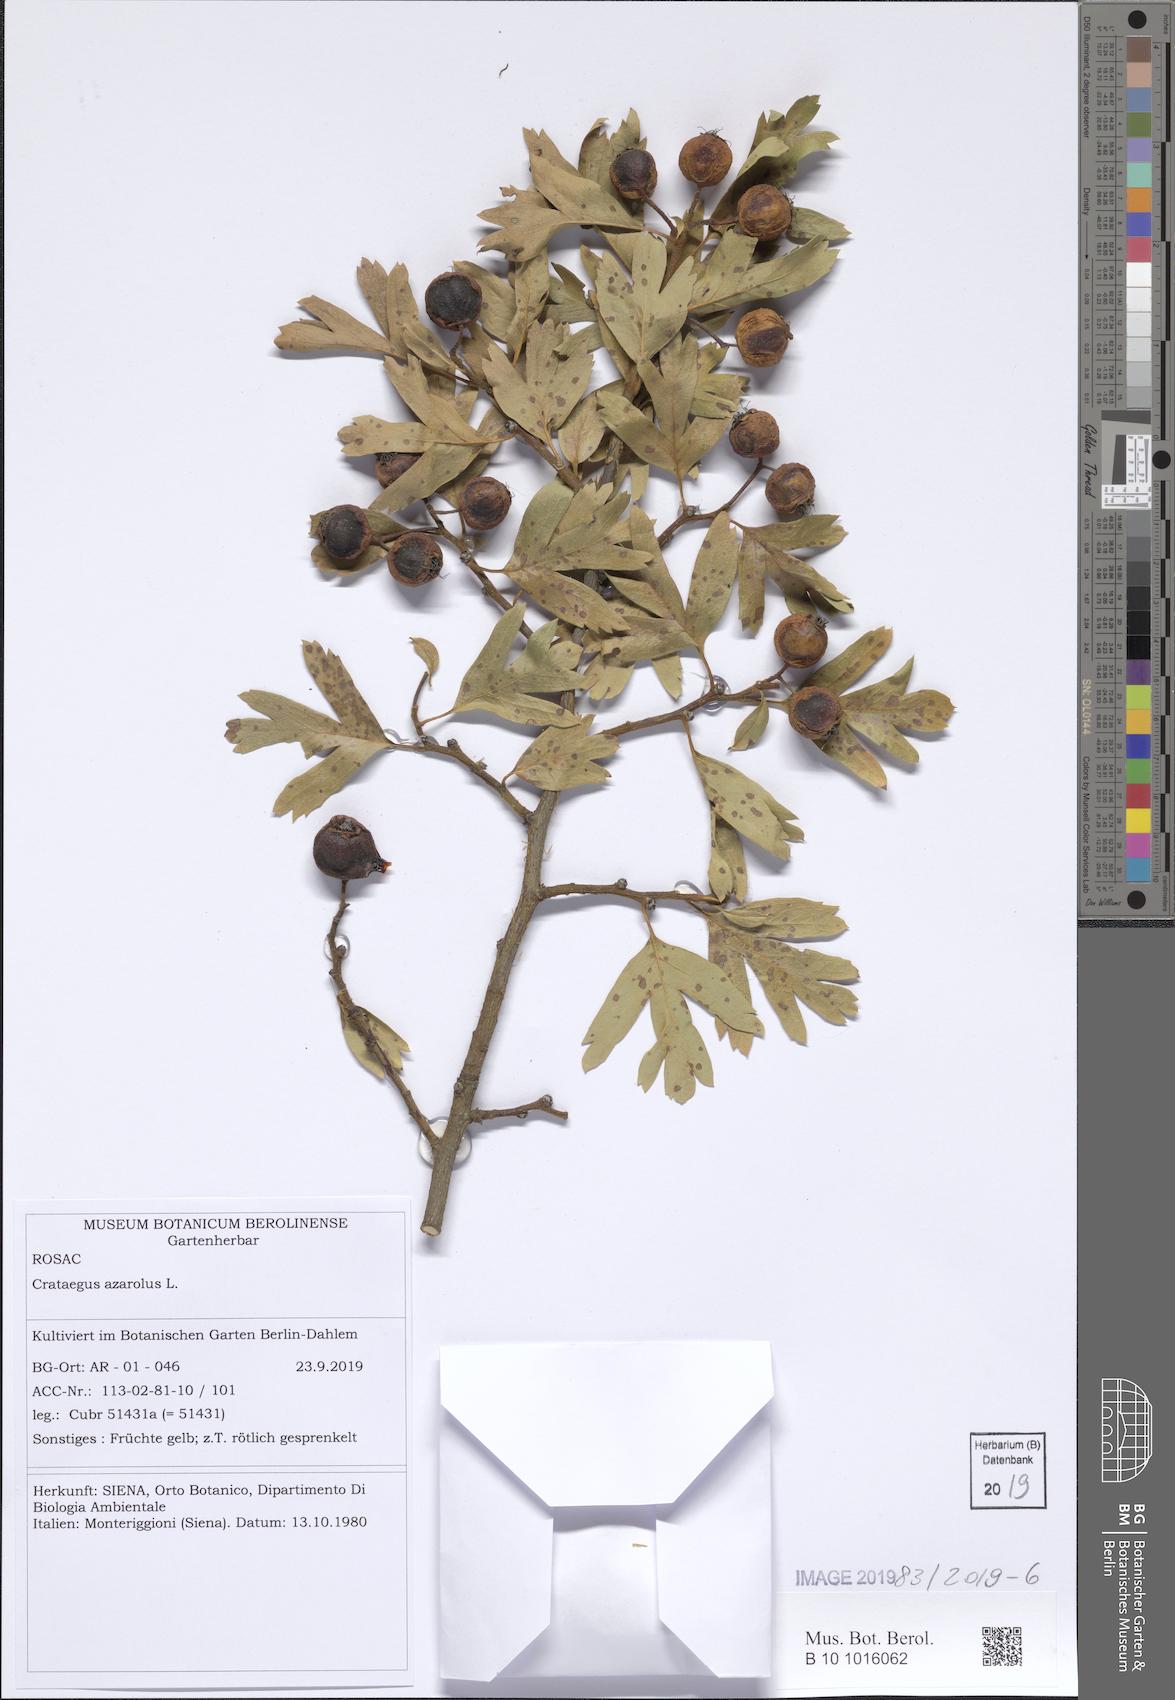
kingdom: Plantae
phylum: Tracheophyta
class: Magnoliopsida
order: Rosales
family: Rosaceae
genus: Crataegus
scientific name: Crataegus azarolus
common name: Azarole
